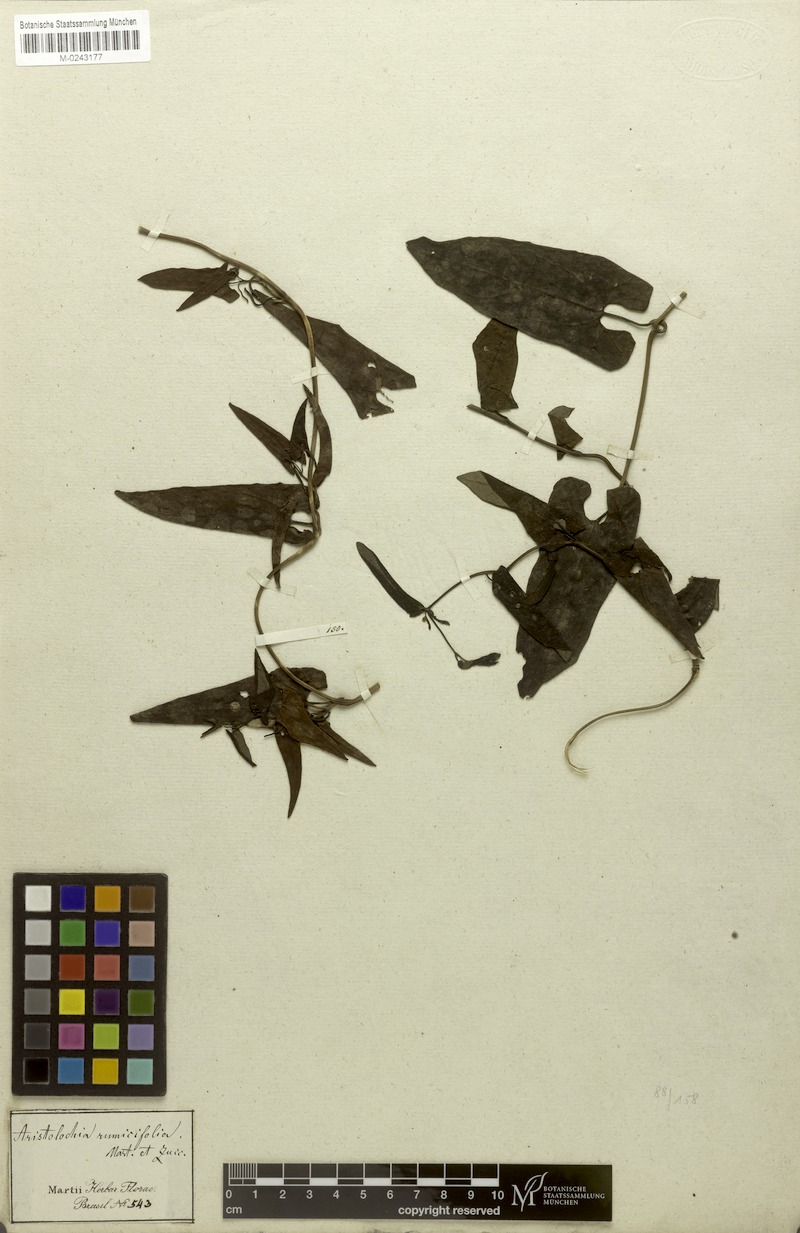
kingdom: Plantae
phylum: Tracheophyta
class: Magnoliopsida
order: Piperales
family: Aristolochiaceae
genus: Aristolochia
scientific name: Aristolochia rumicifolia
